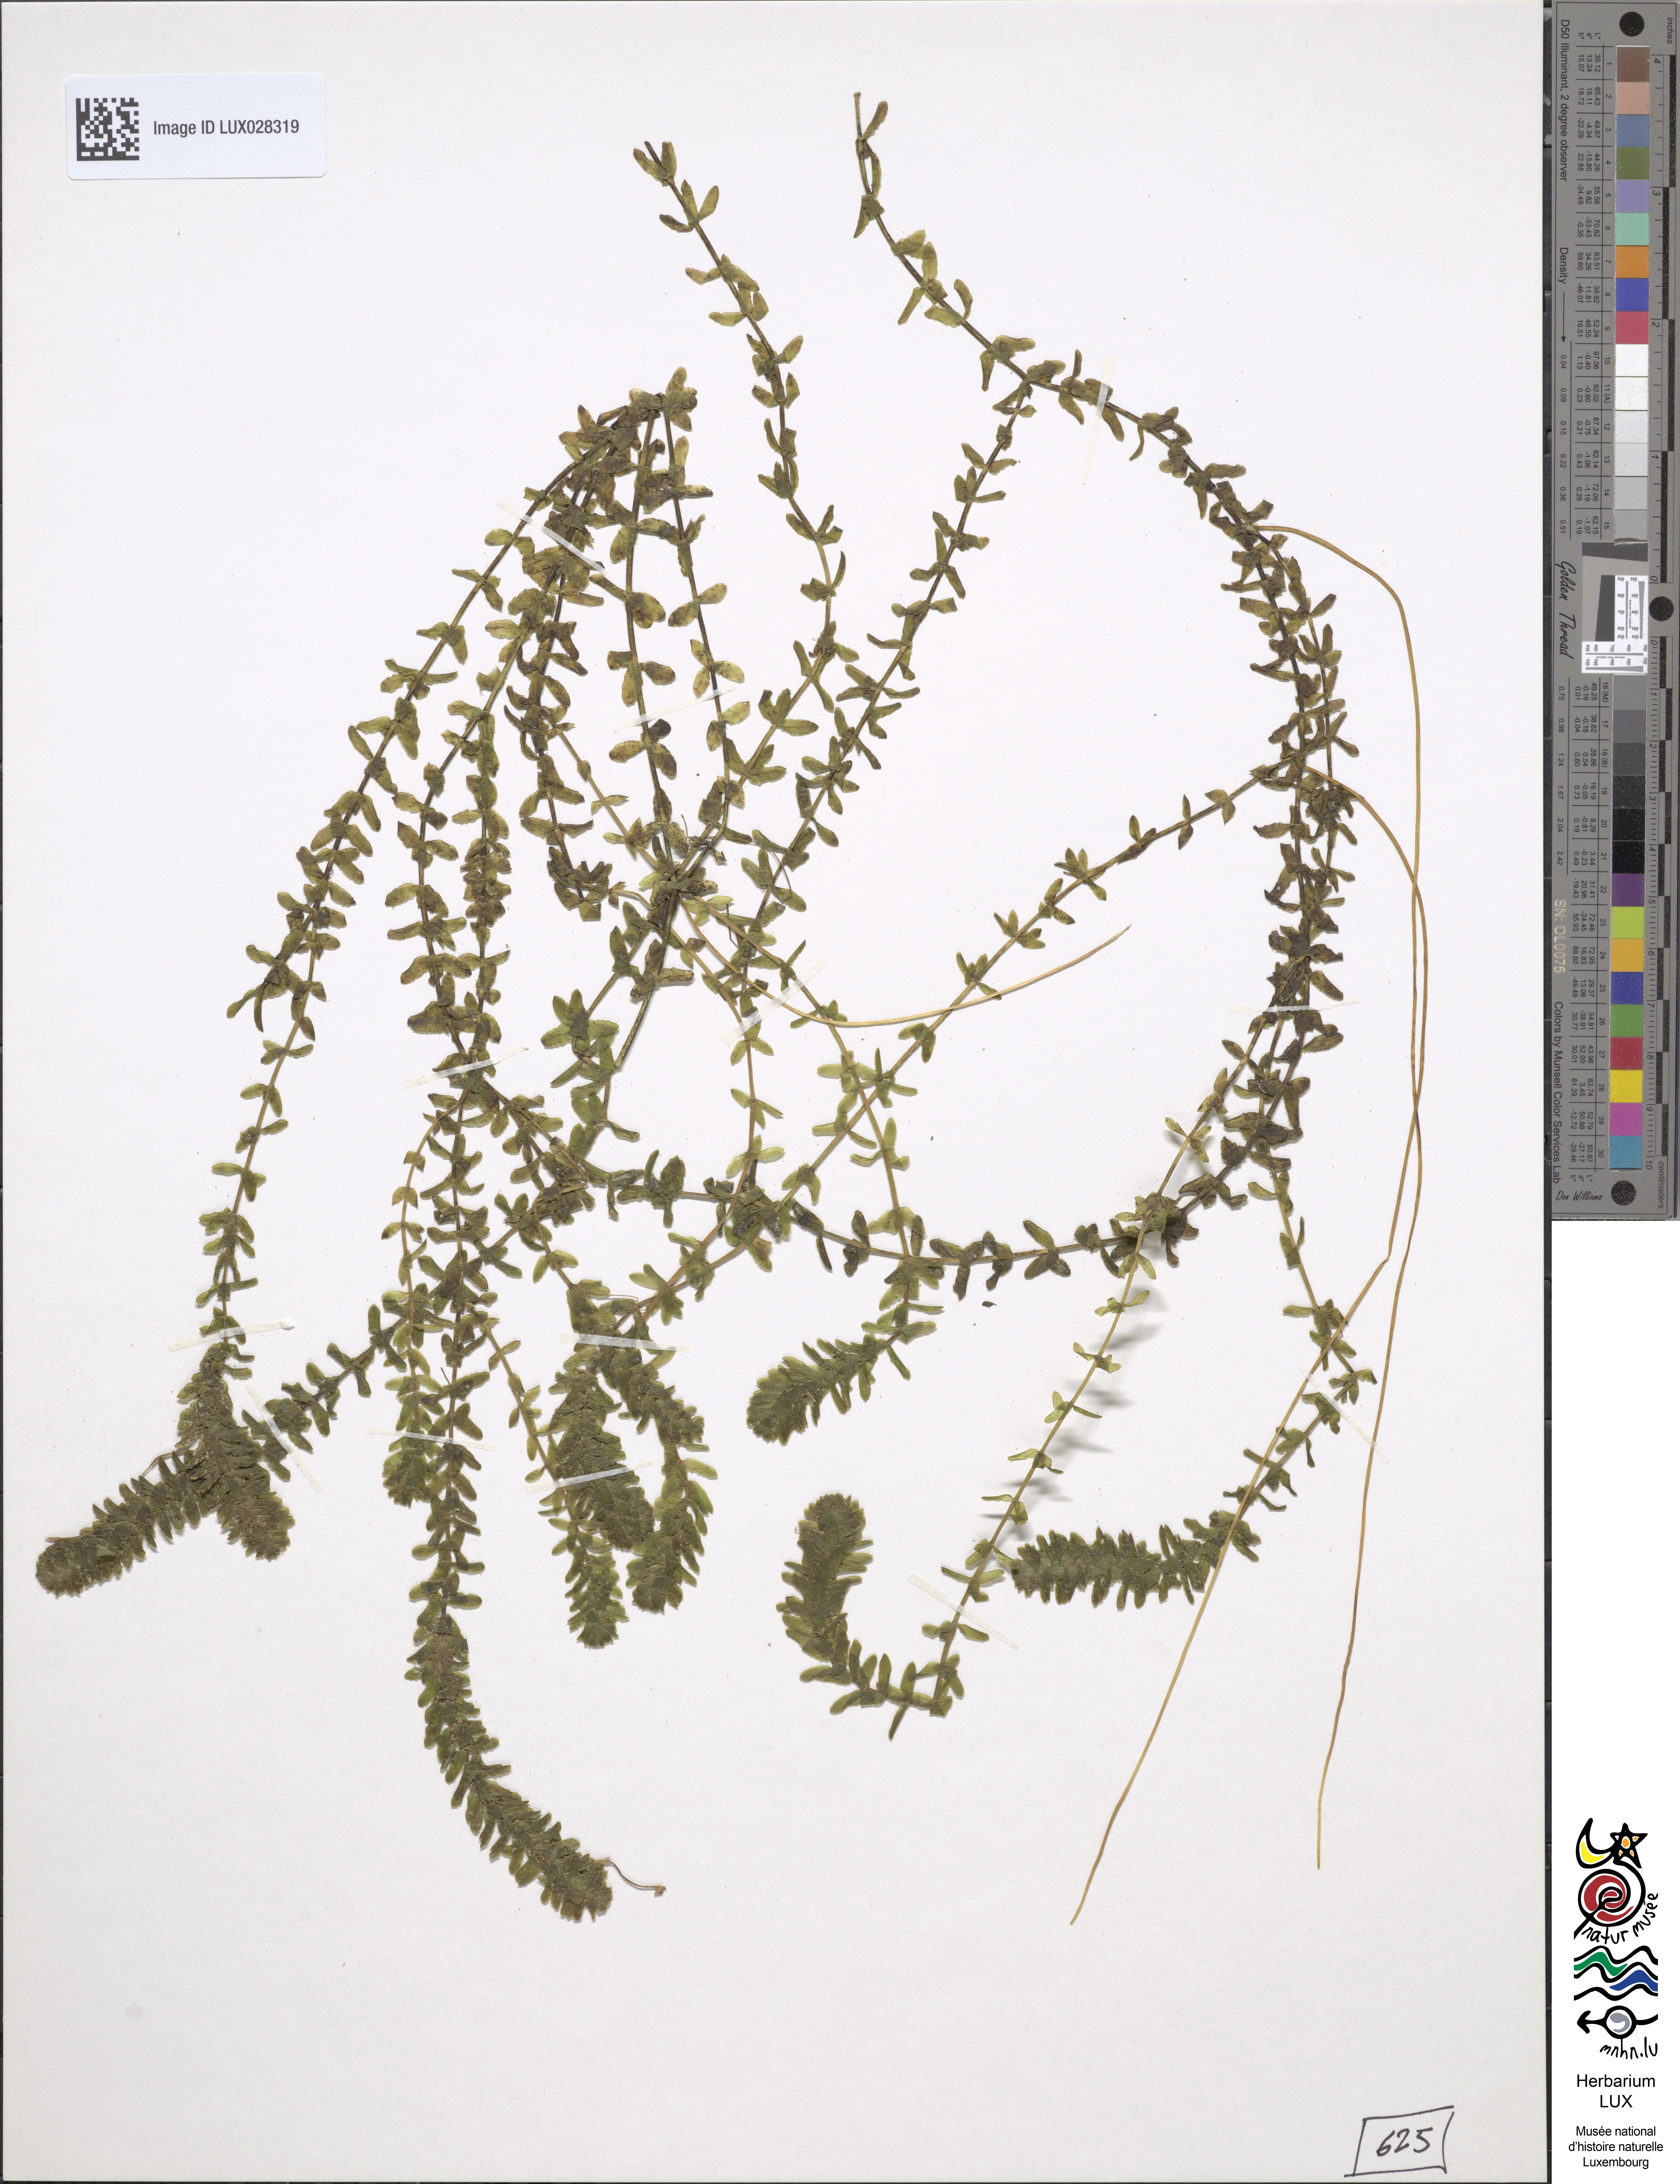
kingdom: Plantae
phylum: Tracheophyta
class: Liliopsida
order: Alismatales
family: Hydrocharitaceae
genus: Elodea
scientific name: Elodea canadensis
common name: Canadian waterweed
